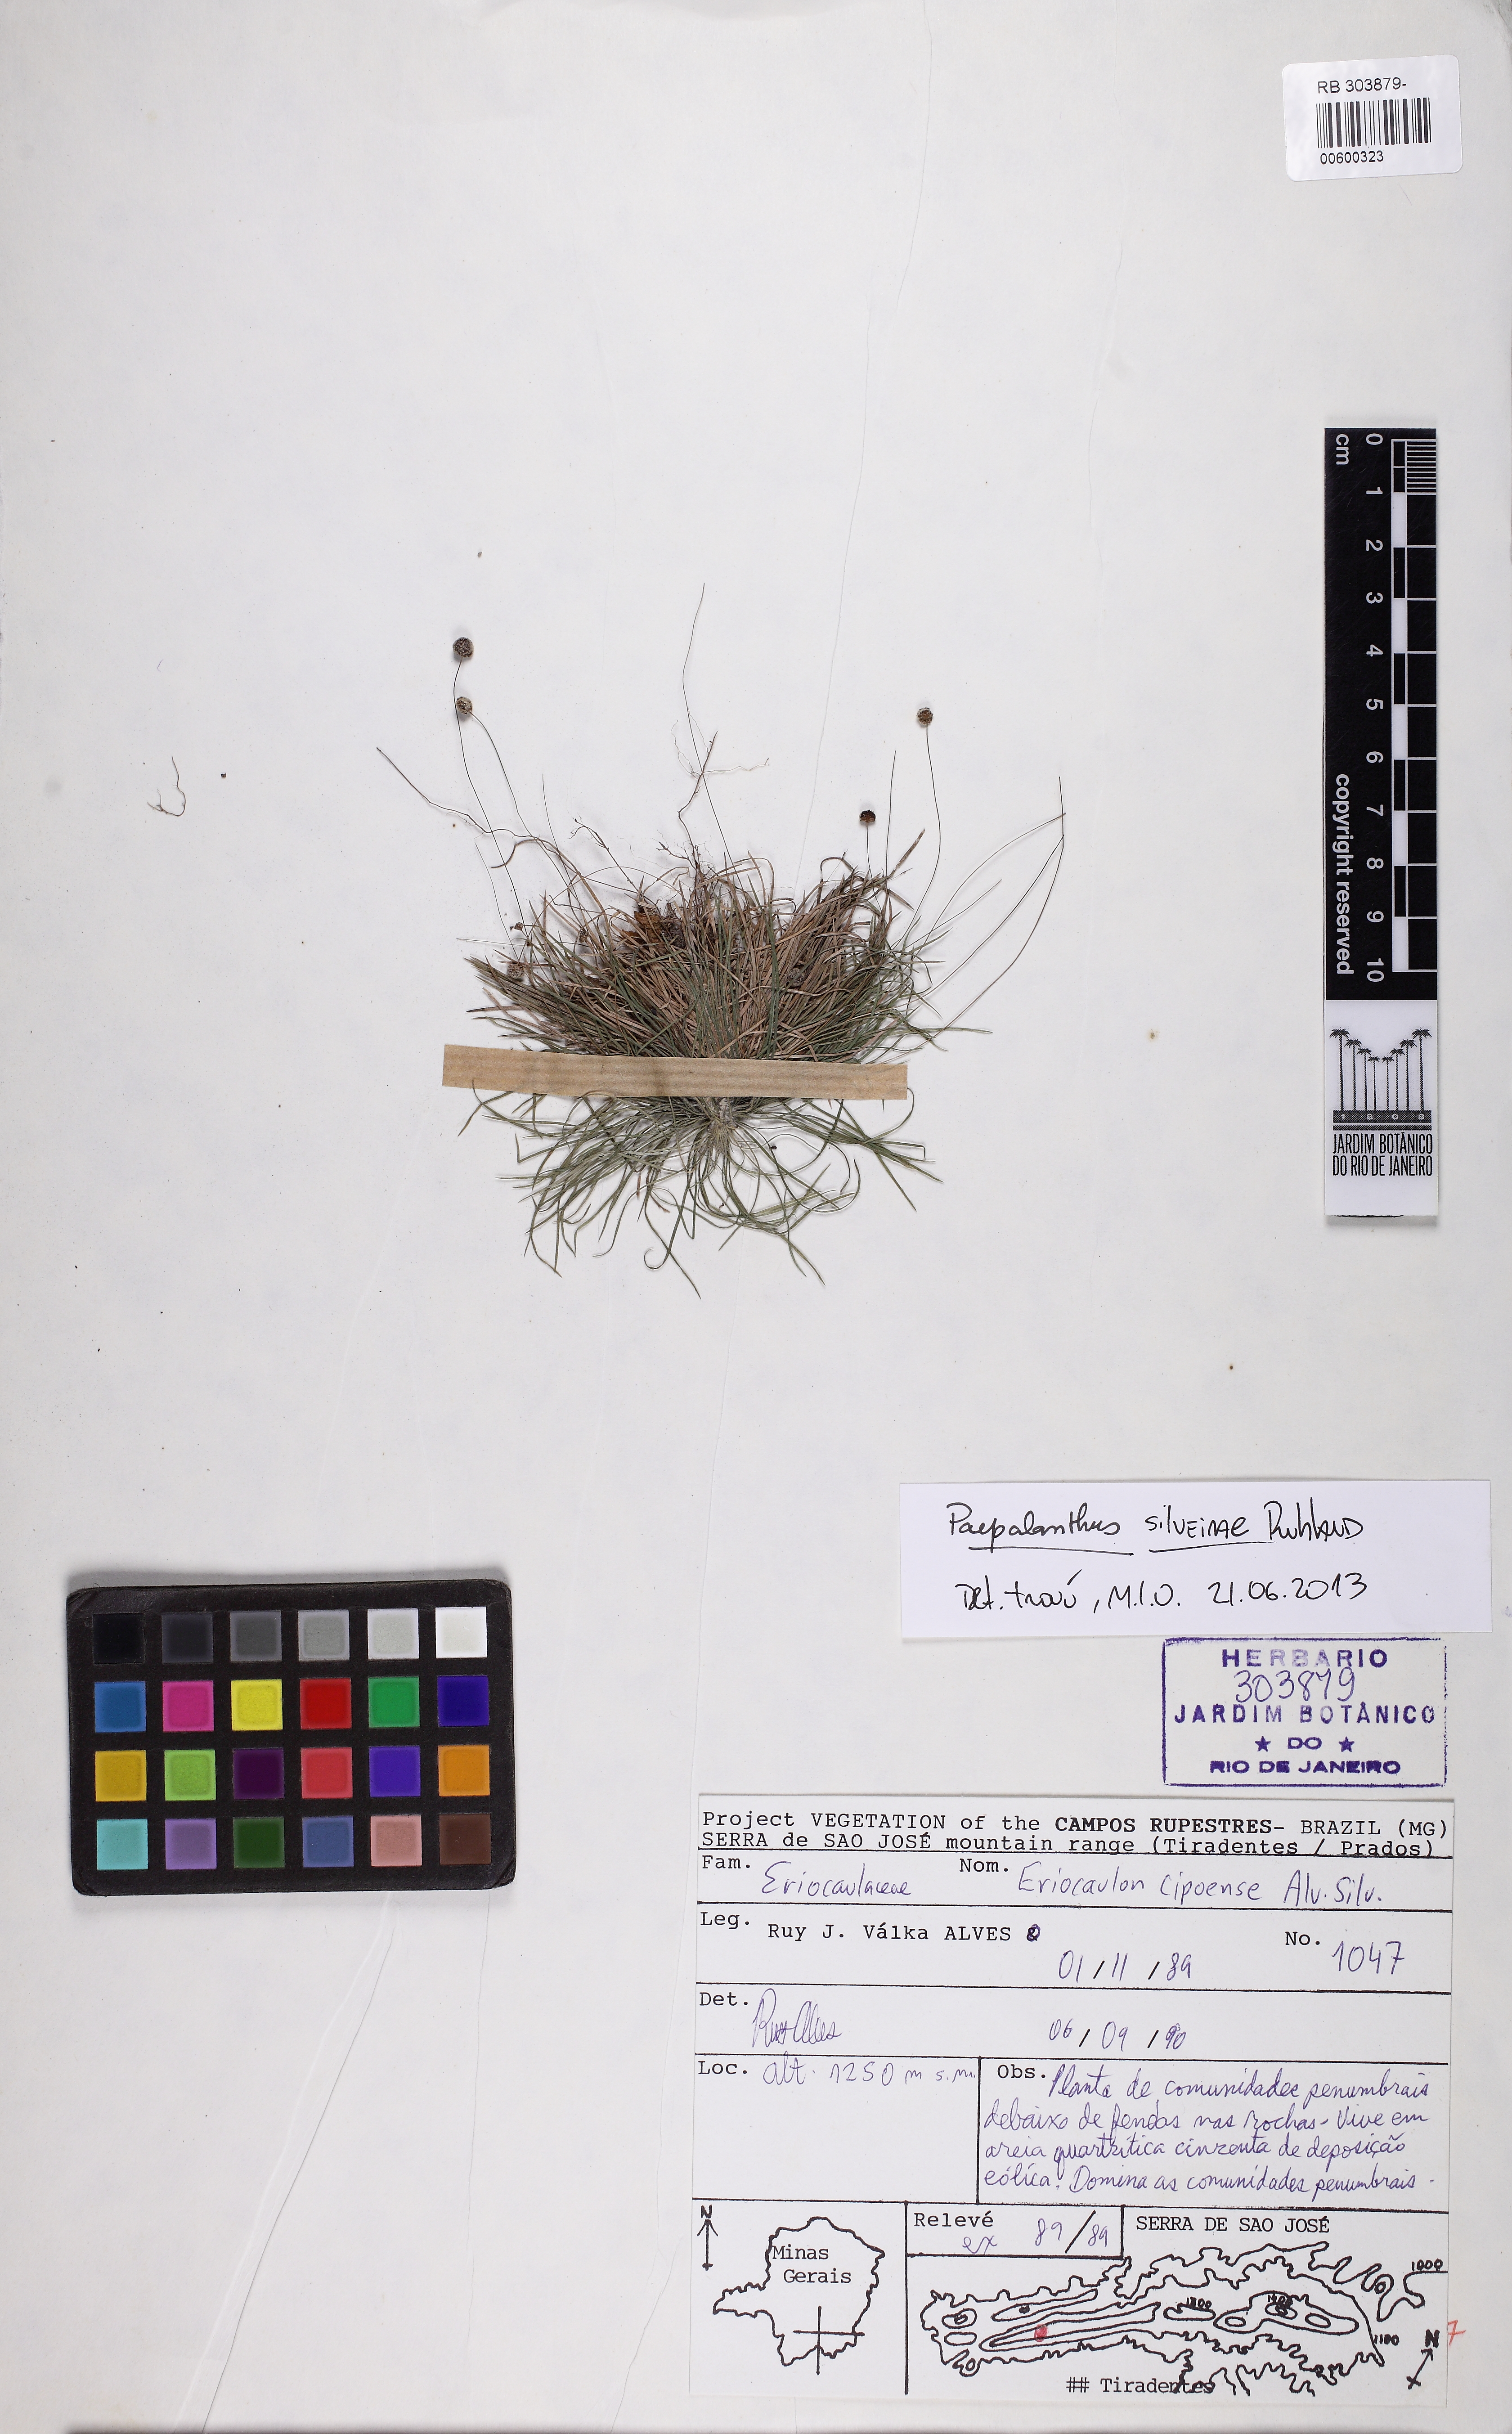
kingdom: Plantae
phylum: Tracheophyta
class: Liliopsida
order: Poales
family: Eriocaulaceae
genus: Paepalanthus
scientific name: Paepalanthus silveirae
